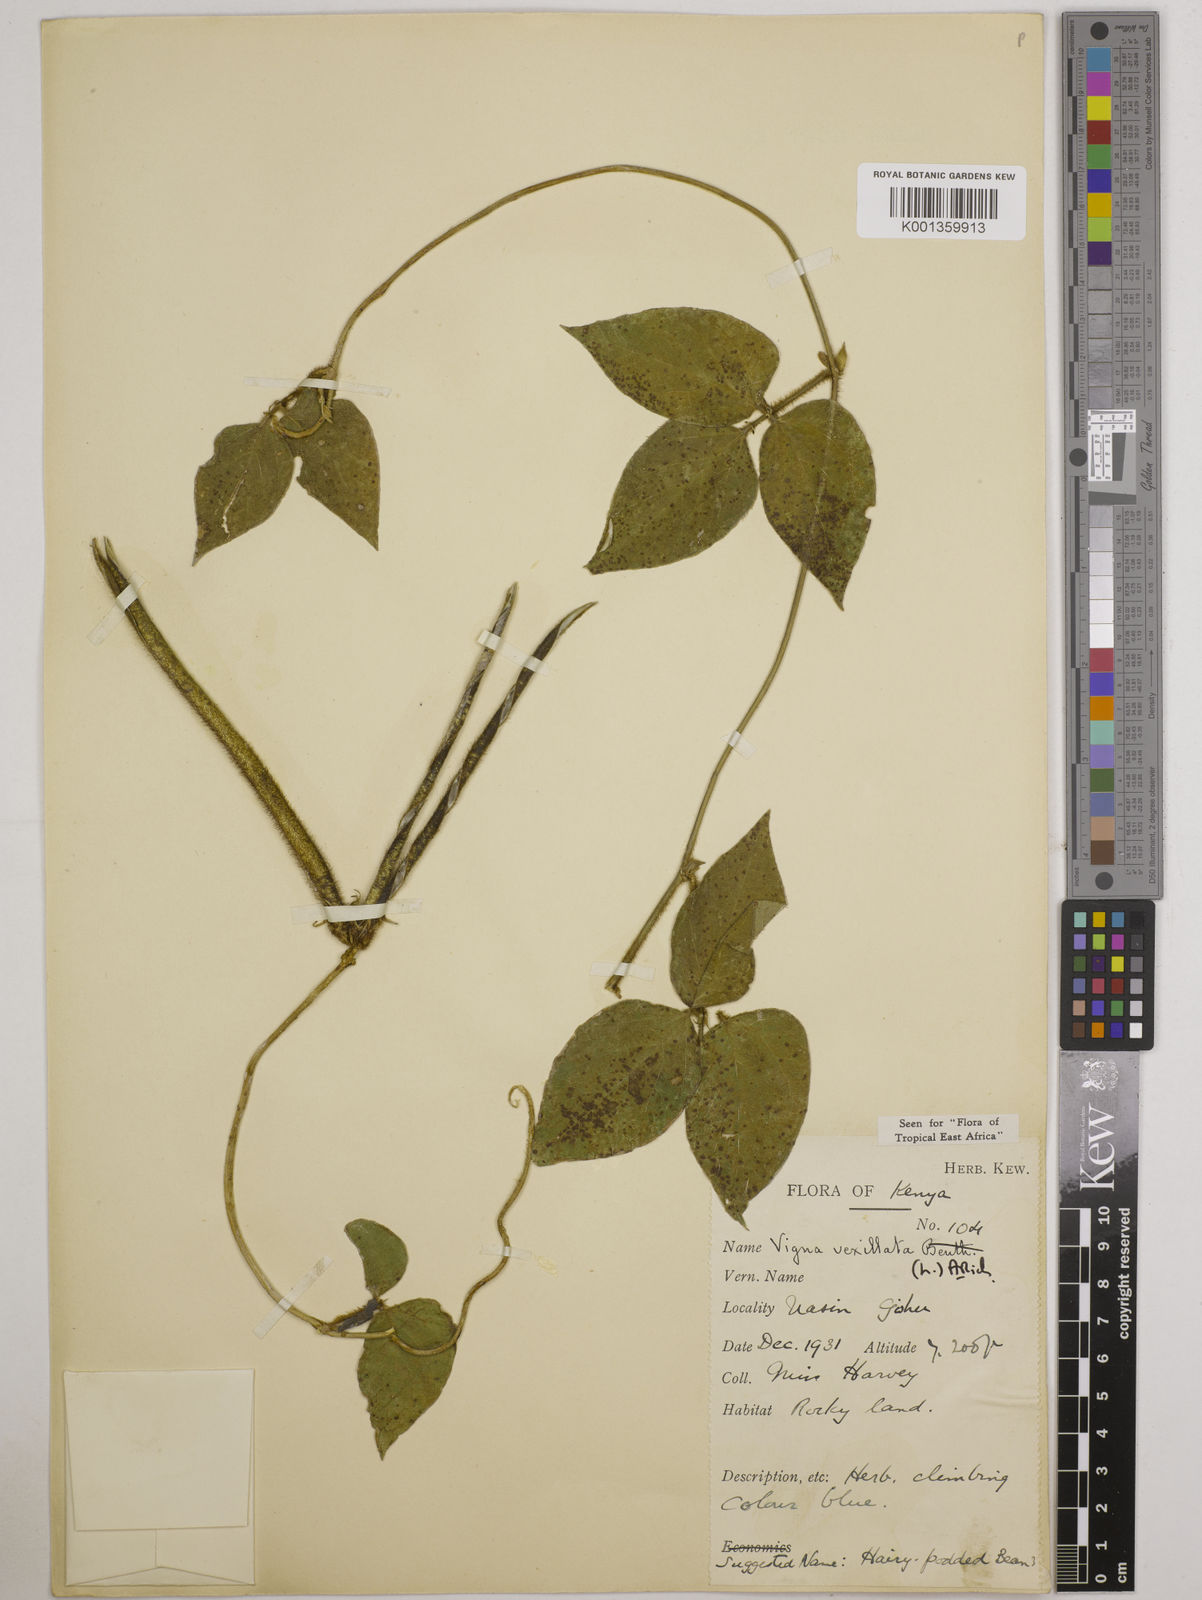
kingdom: Plantae
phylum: Tracheophyta
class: Magnoliopsida
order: Fabales
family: Fabaceae
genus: Vigna
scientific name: Vigna vexillata
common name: Zombi pea
